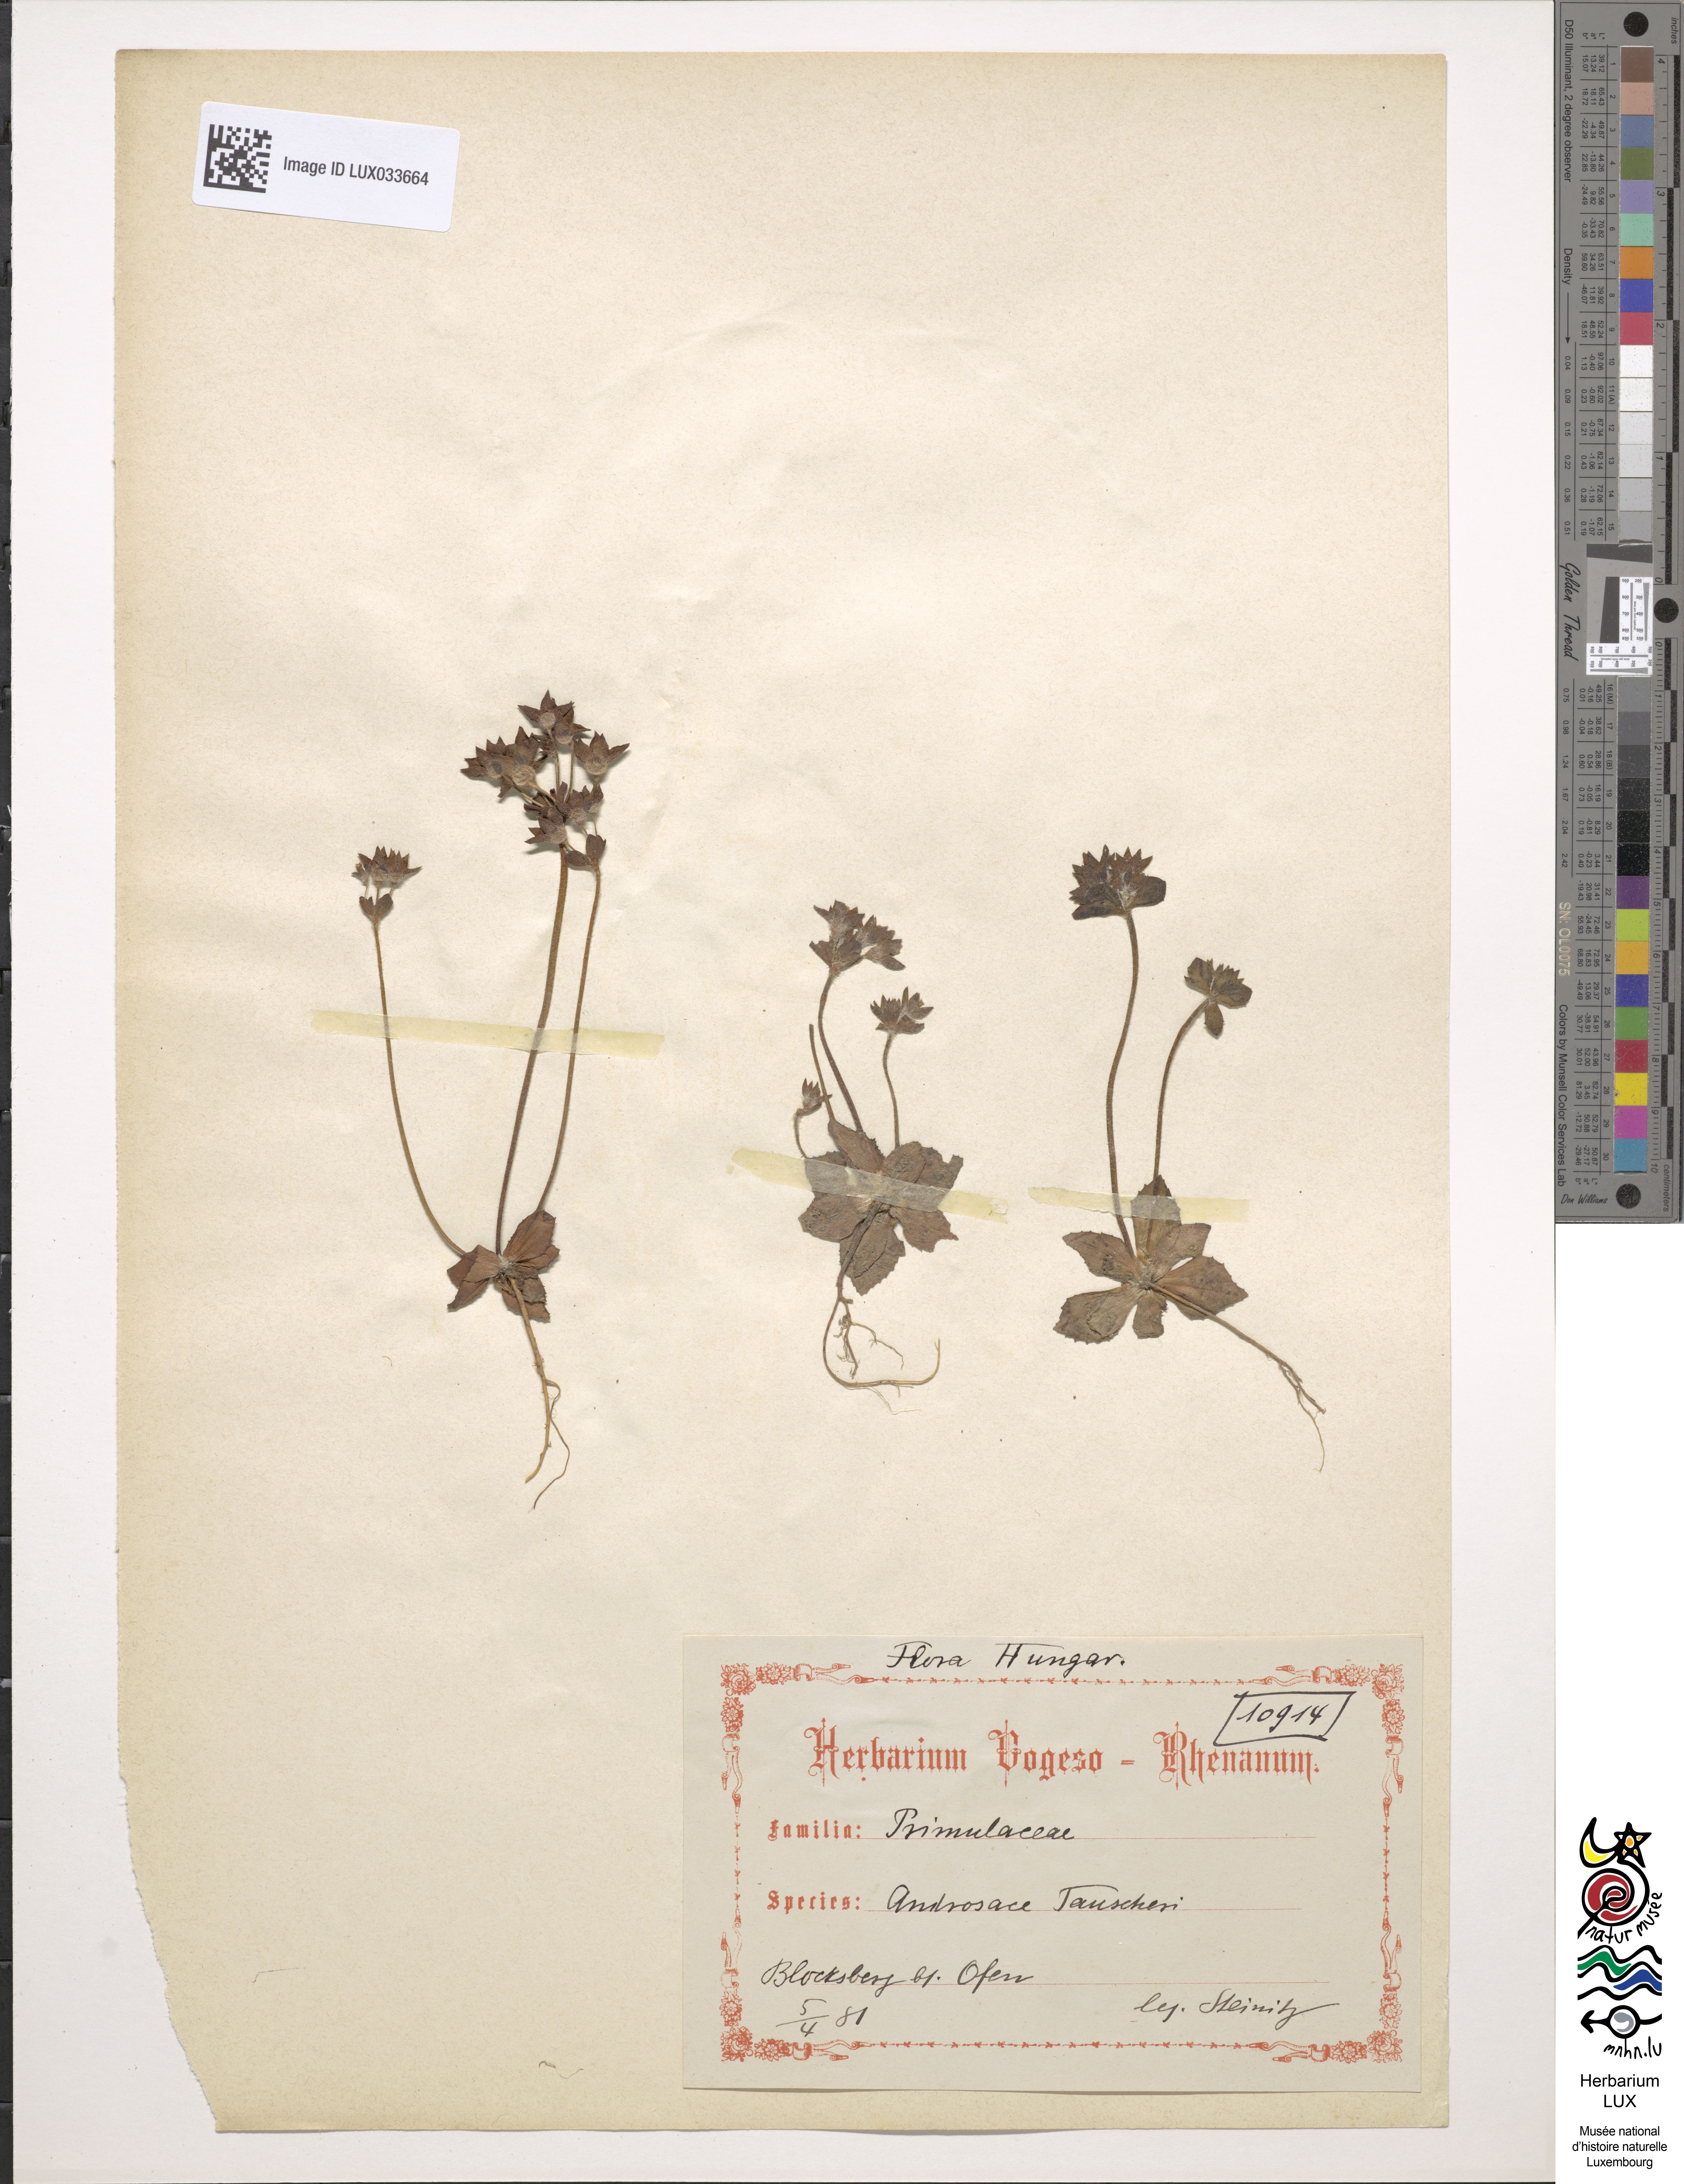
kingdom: Plantae
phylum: Tracheophyta
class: Magnoliopsida
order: Ericales
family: Primulaceae
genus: Androsace
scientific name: Androsace maxima
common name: Annual androsace
